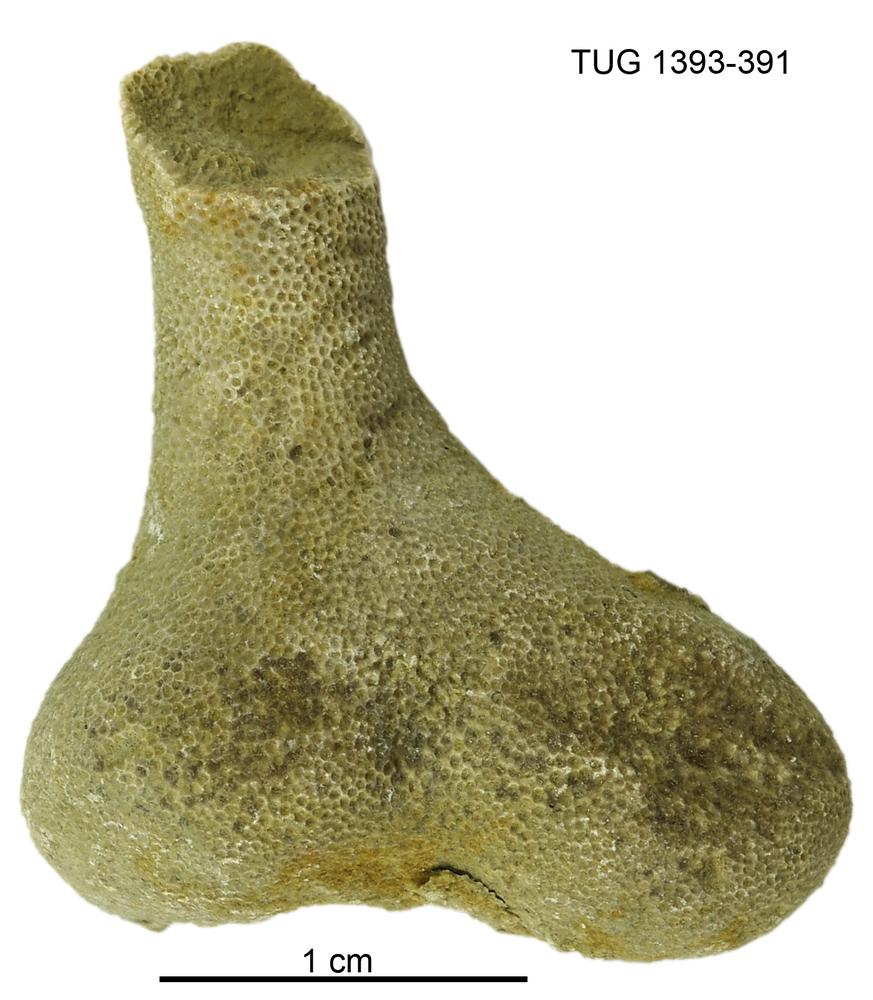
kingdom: Animalia
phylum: Bryozoa
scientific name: Bryozoa
